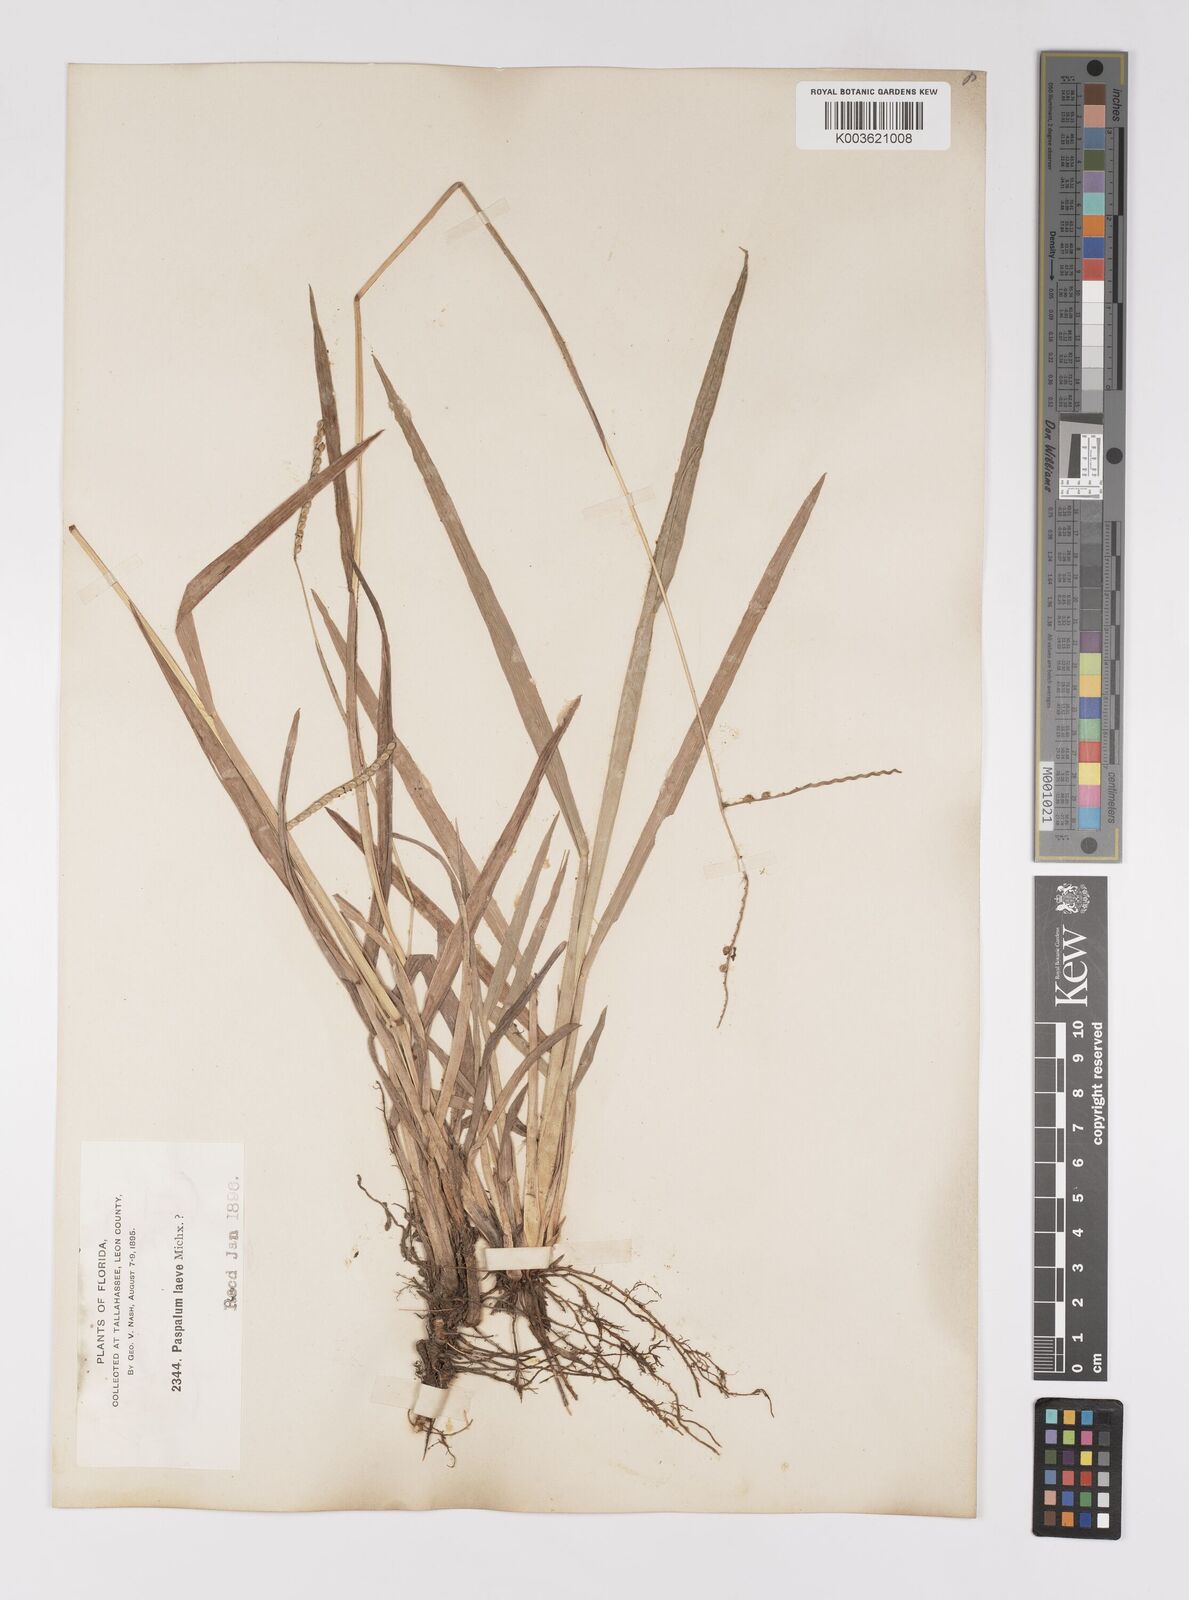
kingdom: Plantae
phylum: Tracheophyta
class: Liliopsida
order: Poales
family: Poaceae
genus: Paspalum
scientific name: Paspalum laeve
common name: Field paspalum
